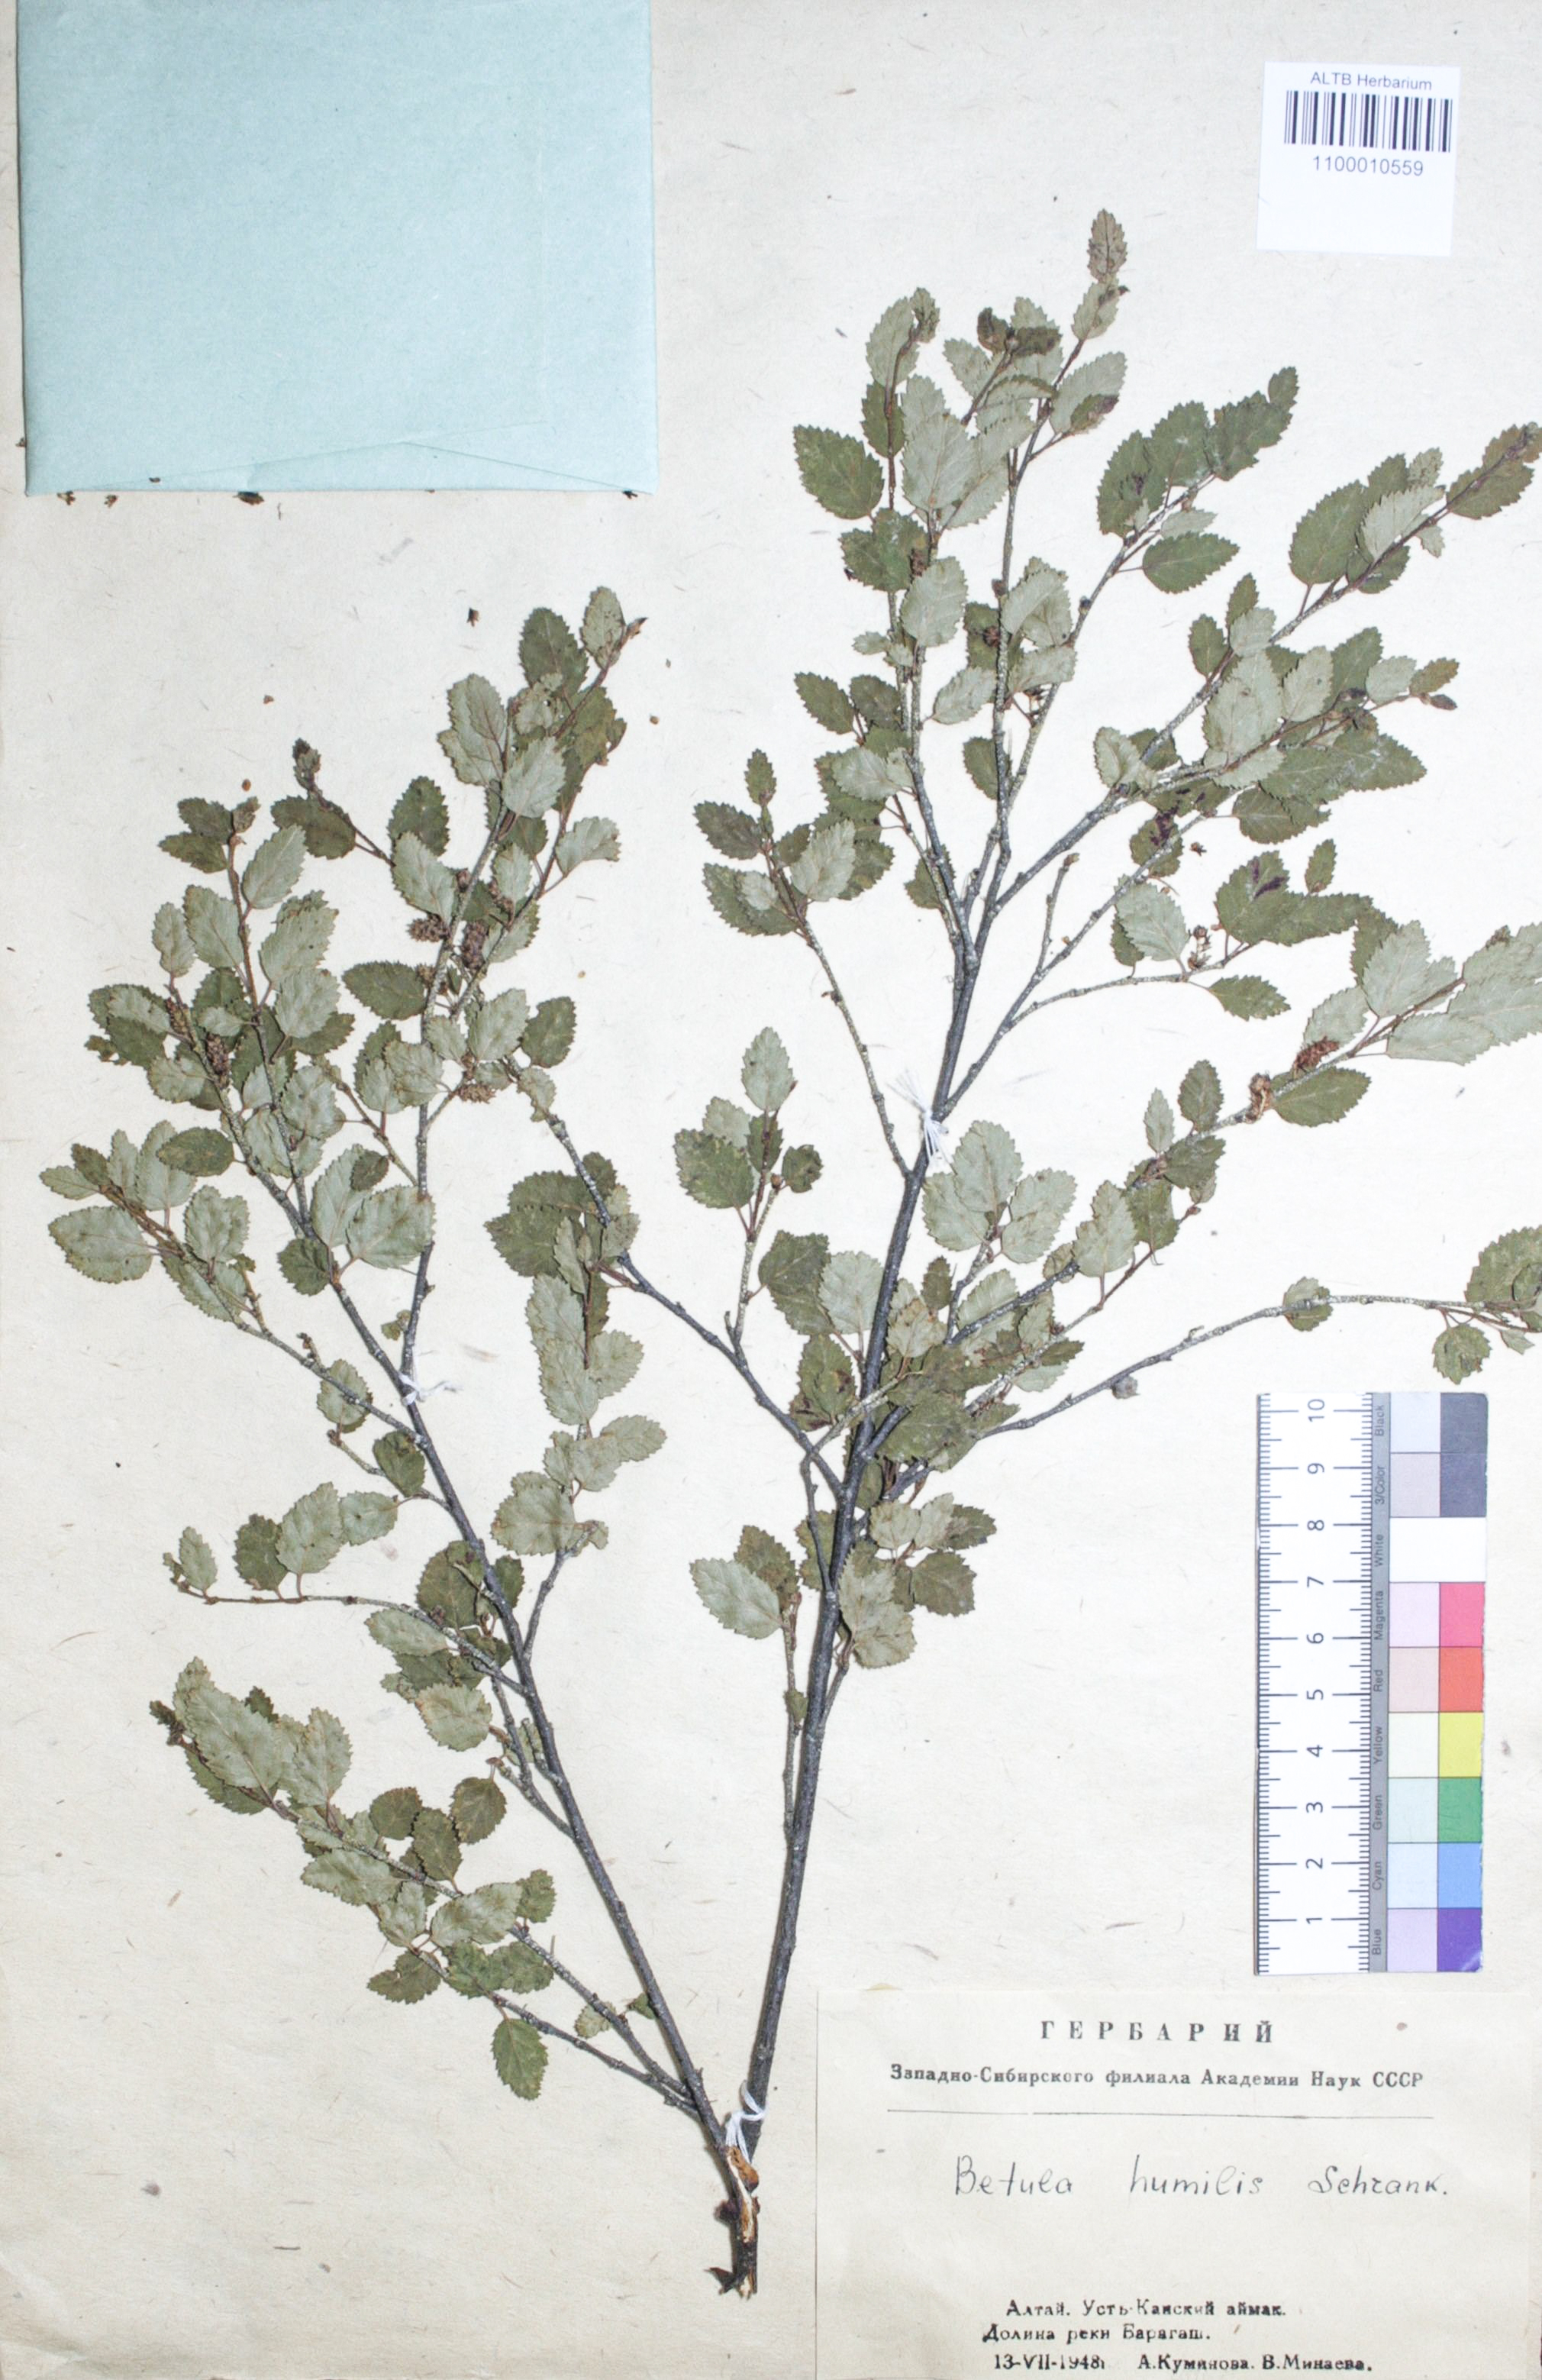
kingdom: Plantae
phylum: Tracheophyta
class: Magnoliopsida
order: Fagales
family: Betulaceae
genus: Betula
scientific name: Betula humilis
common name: Shrubby birch
